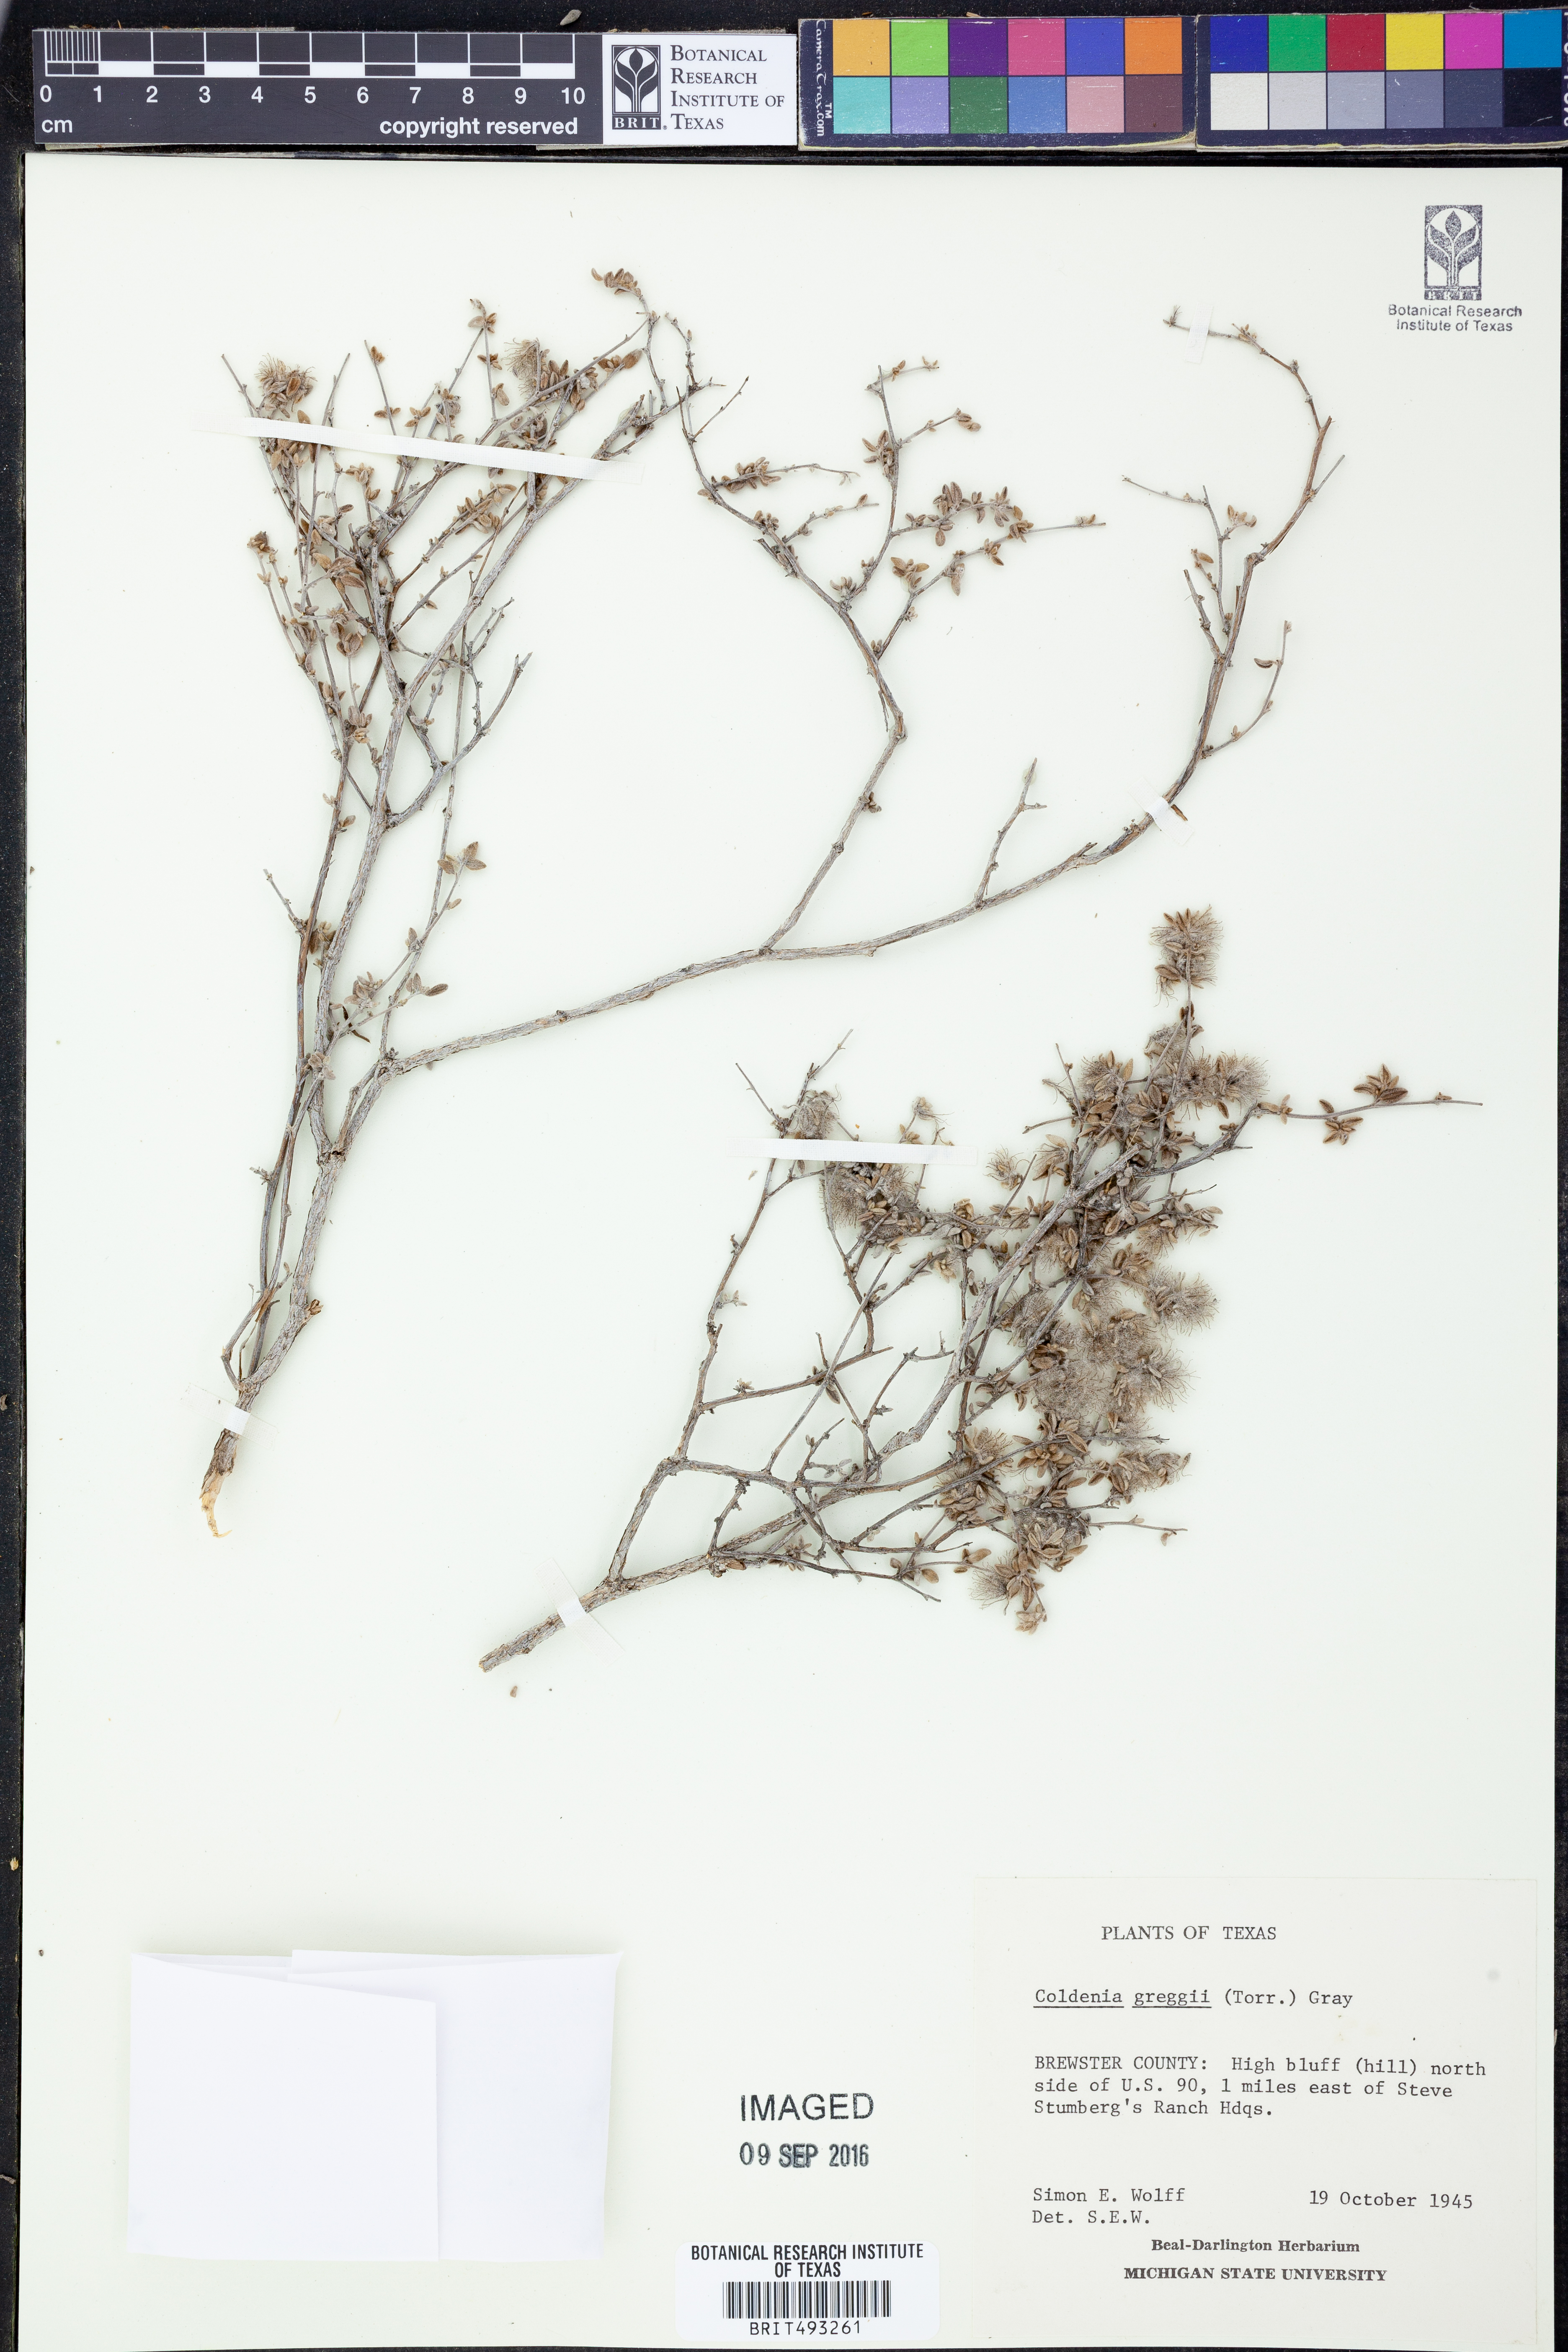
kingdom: Plantae
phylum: Tracheophyta
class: Magnoliopsida
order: Boraginales
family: Ehretiaceae
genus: Tiquilia
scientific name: Tiquilia greggii
